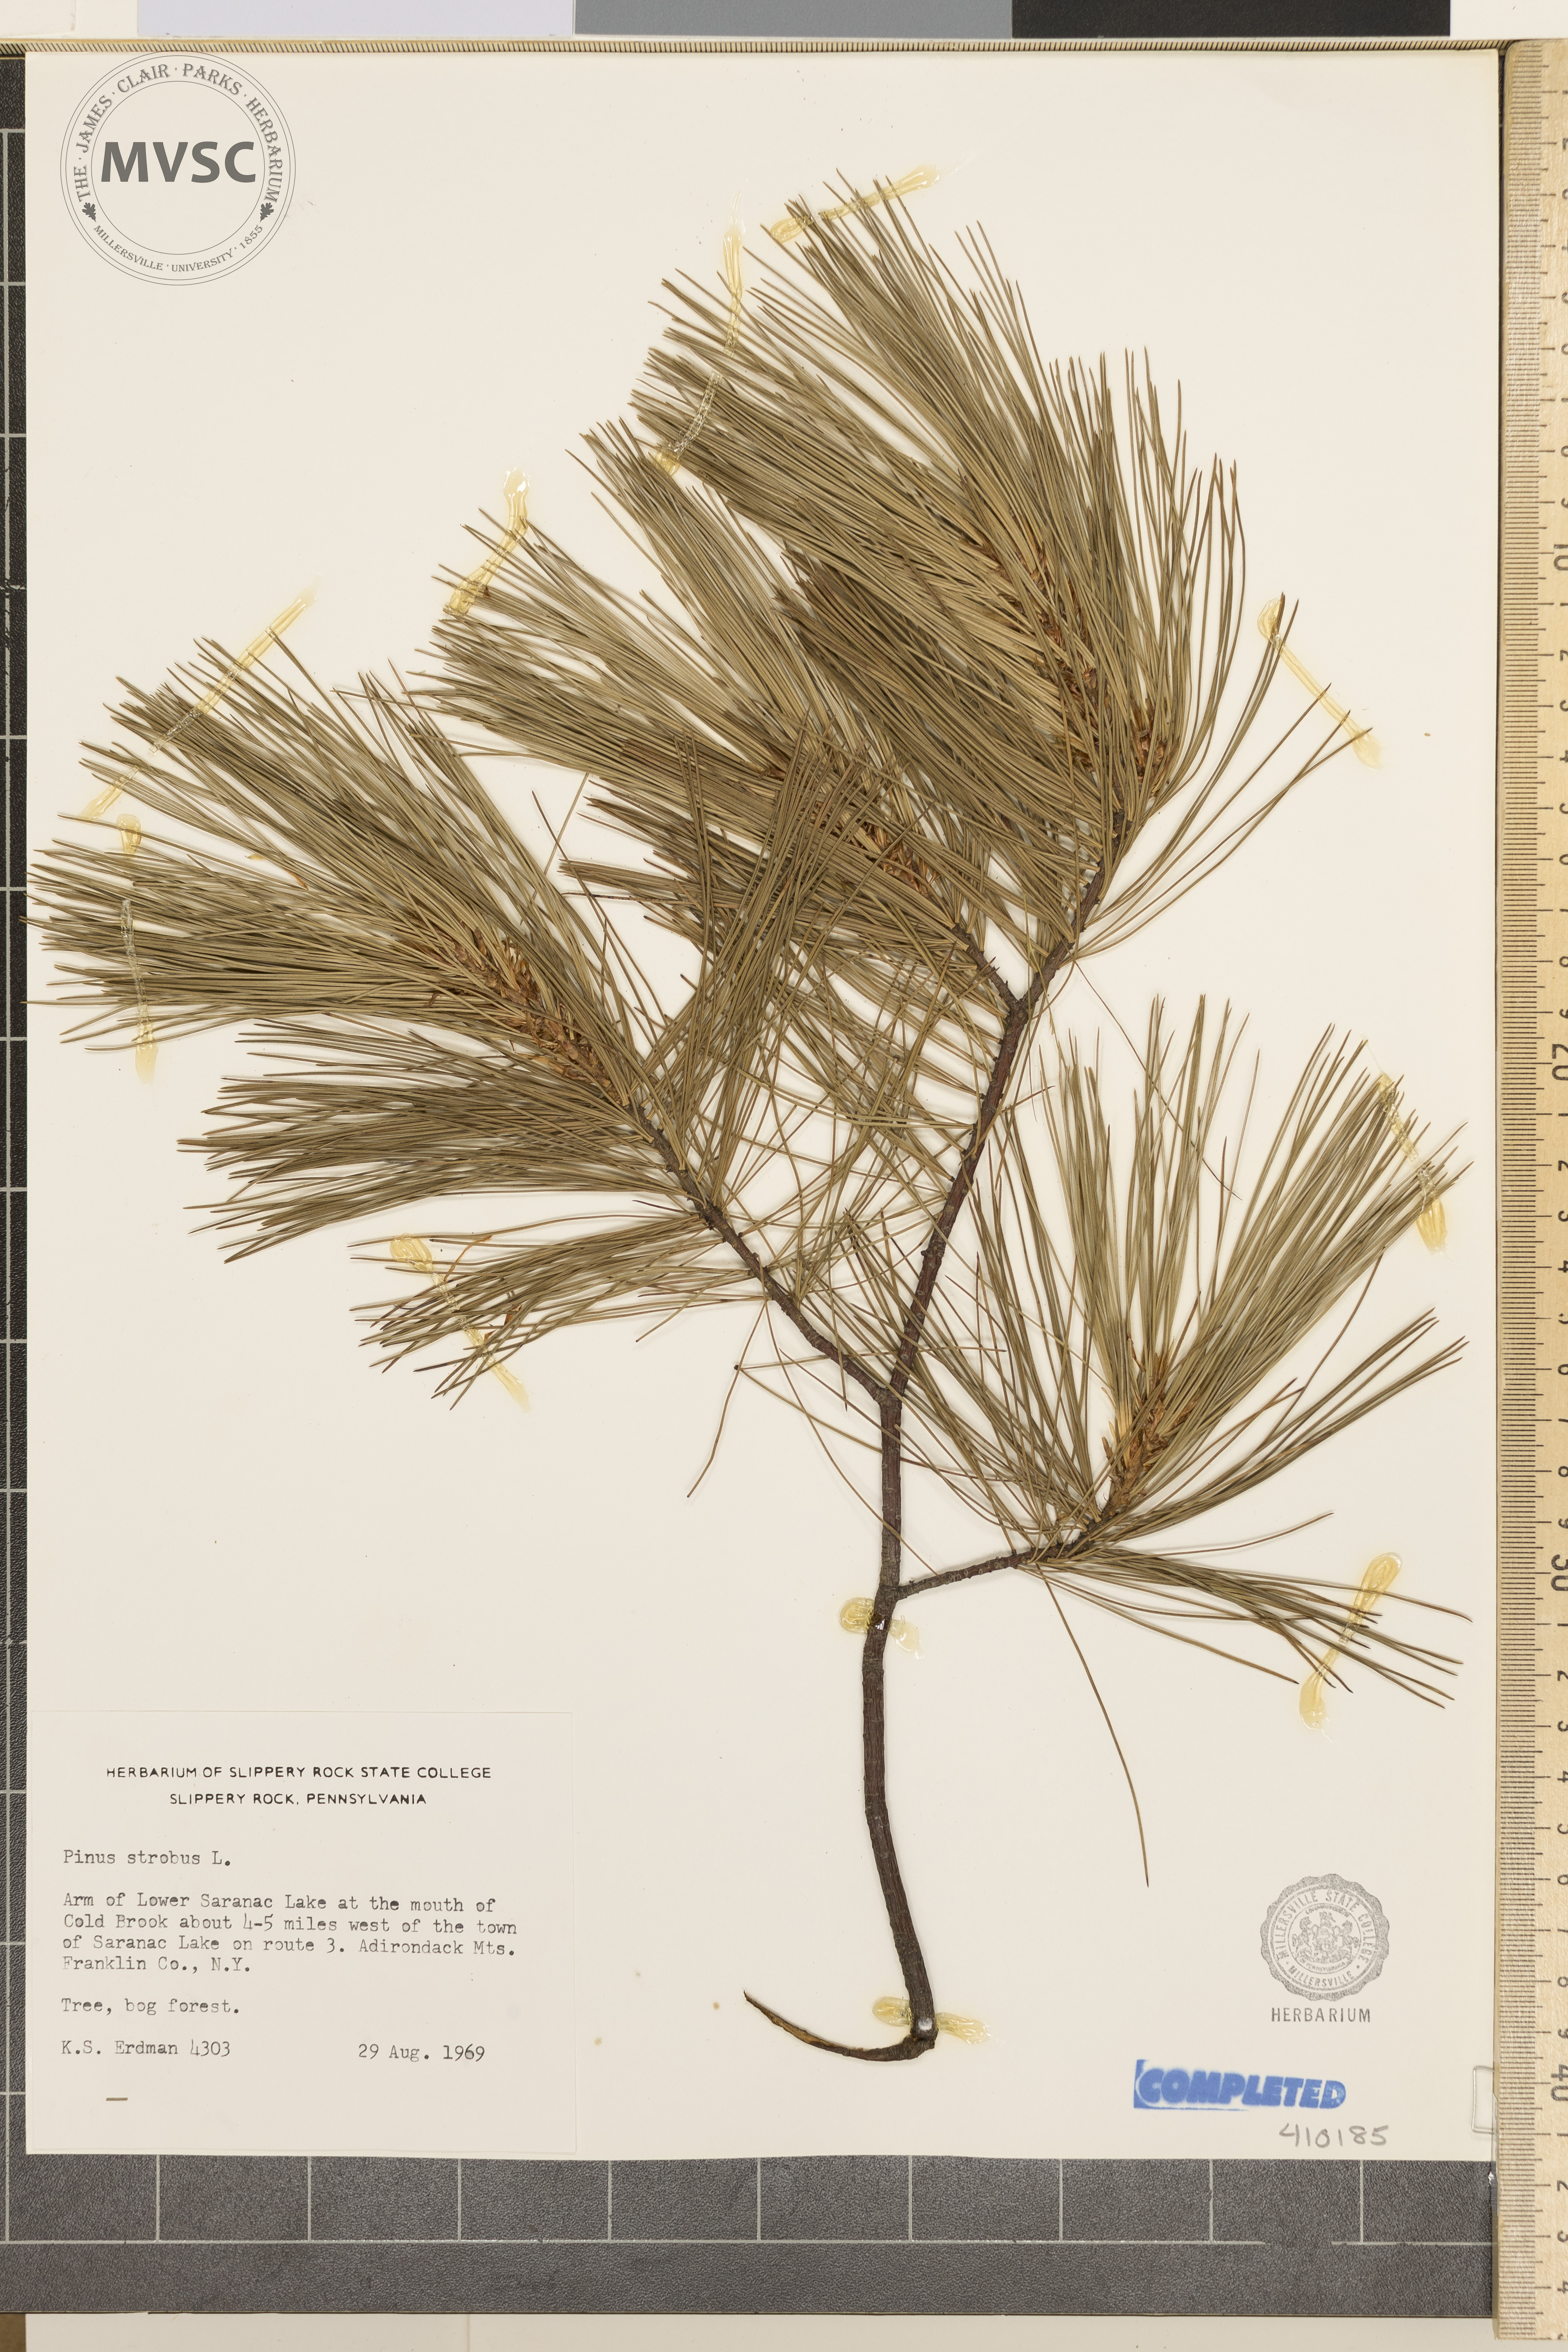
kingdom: Plantae
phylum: Tracheophyta
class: Pinopsida
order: Pinales
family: Pinaceae
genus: Pinus
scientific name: Pinus strobus
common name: Weymouth pine
